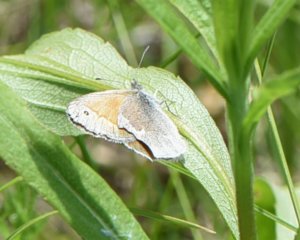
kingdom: Animalia
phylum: Arthropoda
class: Insecta
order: Lepidoptera
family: Nymphalidae
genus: Coenonympha
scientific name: Coenonympha tullia
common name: Large Heath
